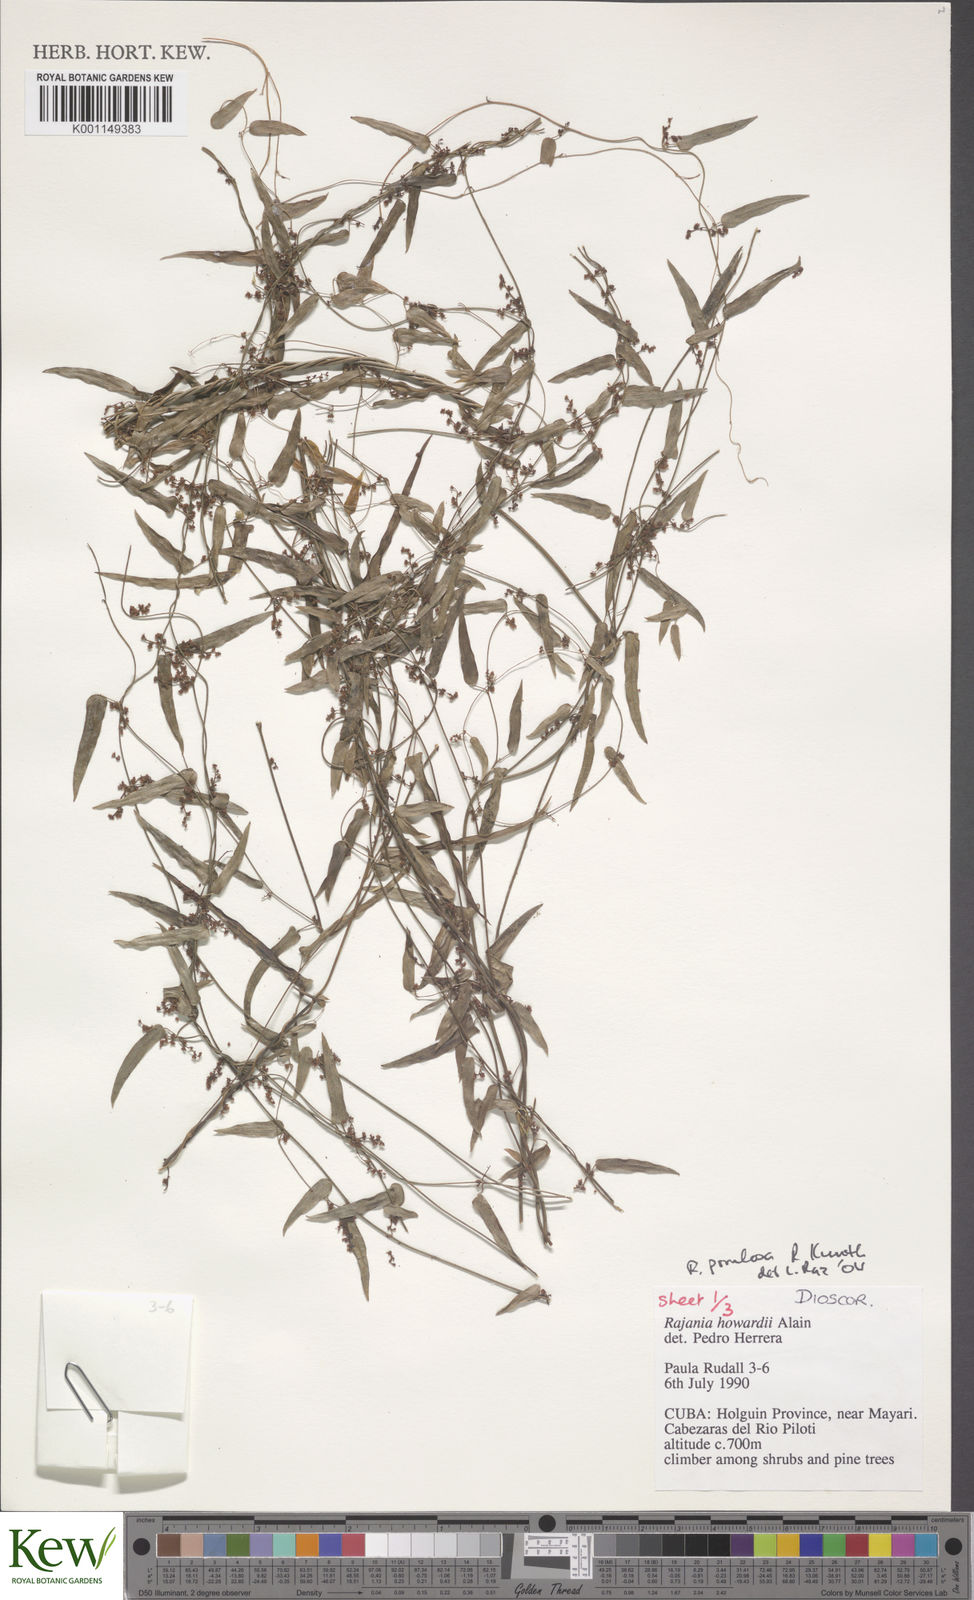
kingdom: Plantae
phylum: Tracheophyta
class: Liliopsida
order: Dioscoreales
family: Dioscoreaceae
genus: Dioscorea
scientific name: Dioscorea
